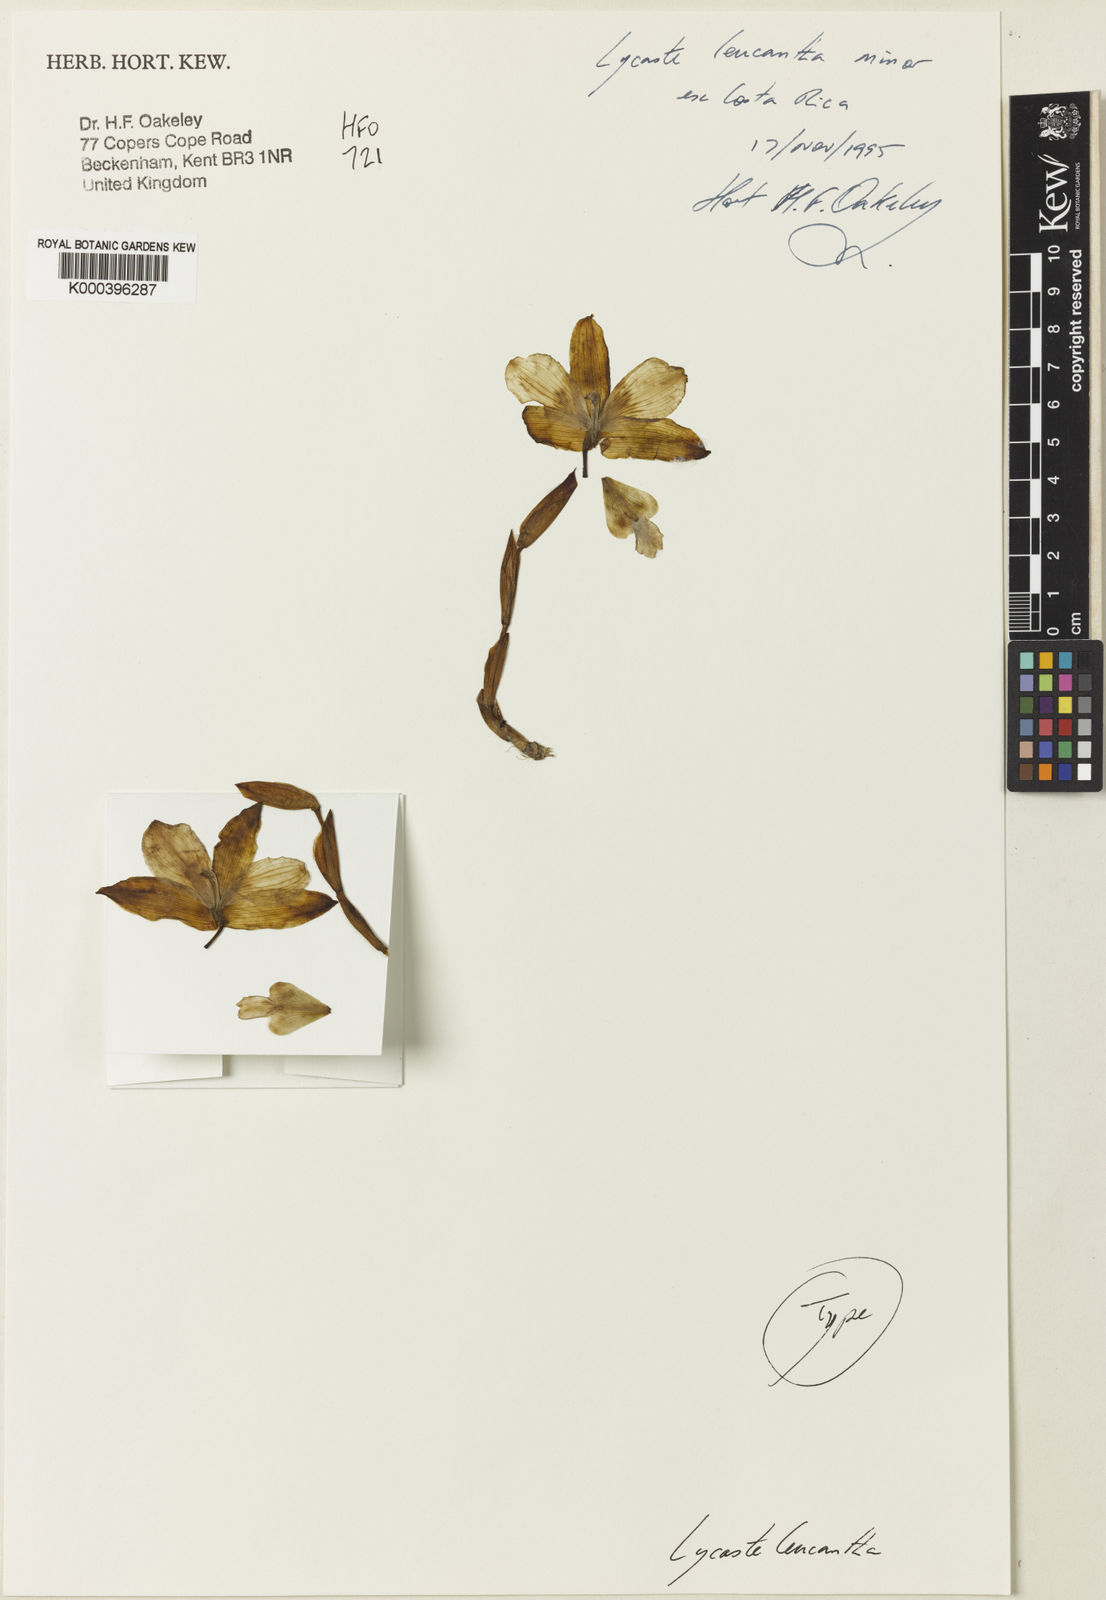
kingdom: Plantae
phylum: Tracheophyta
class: Liliopsida
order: Asparagales
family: Orchidaceae
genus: Lycaste
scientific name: Lycaste leucantha
